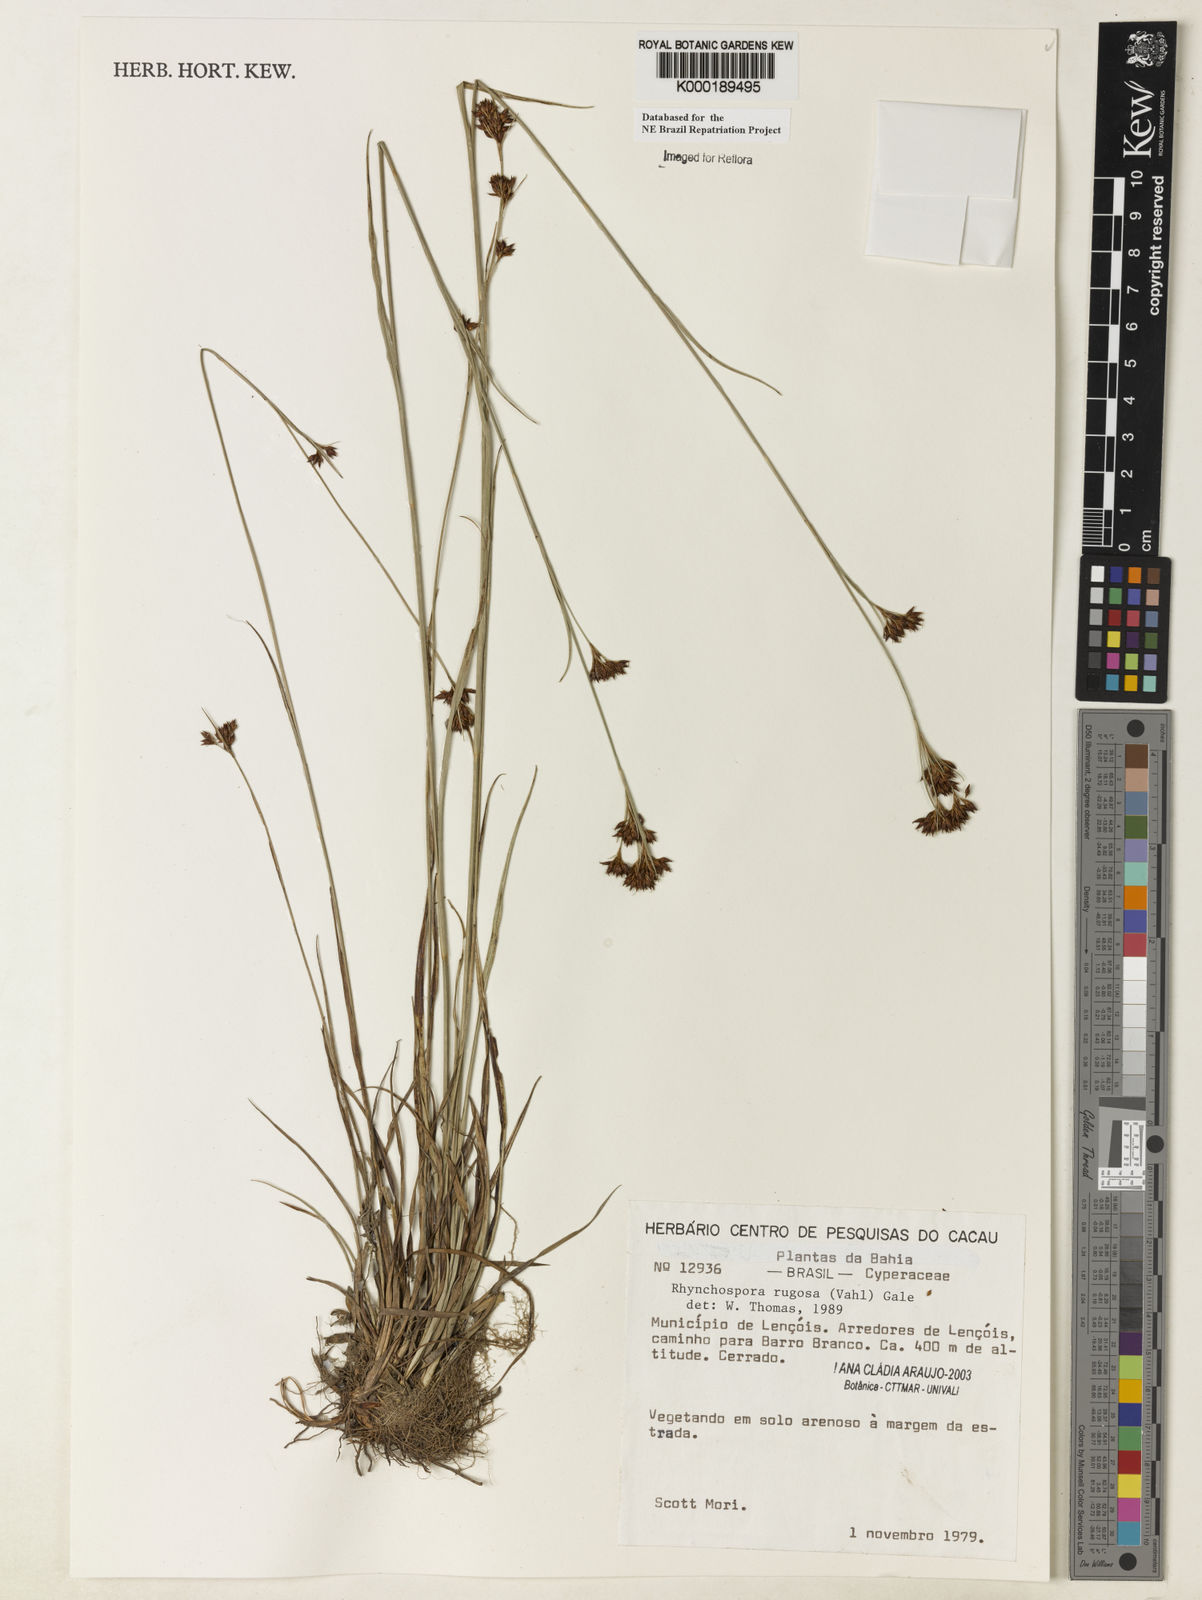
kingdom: Plantae
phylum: Tracheophyta
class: Liliopsida
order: Poales
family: Cyperaceae
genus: Rhynchospora
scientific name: Rhynchospora rugosa
